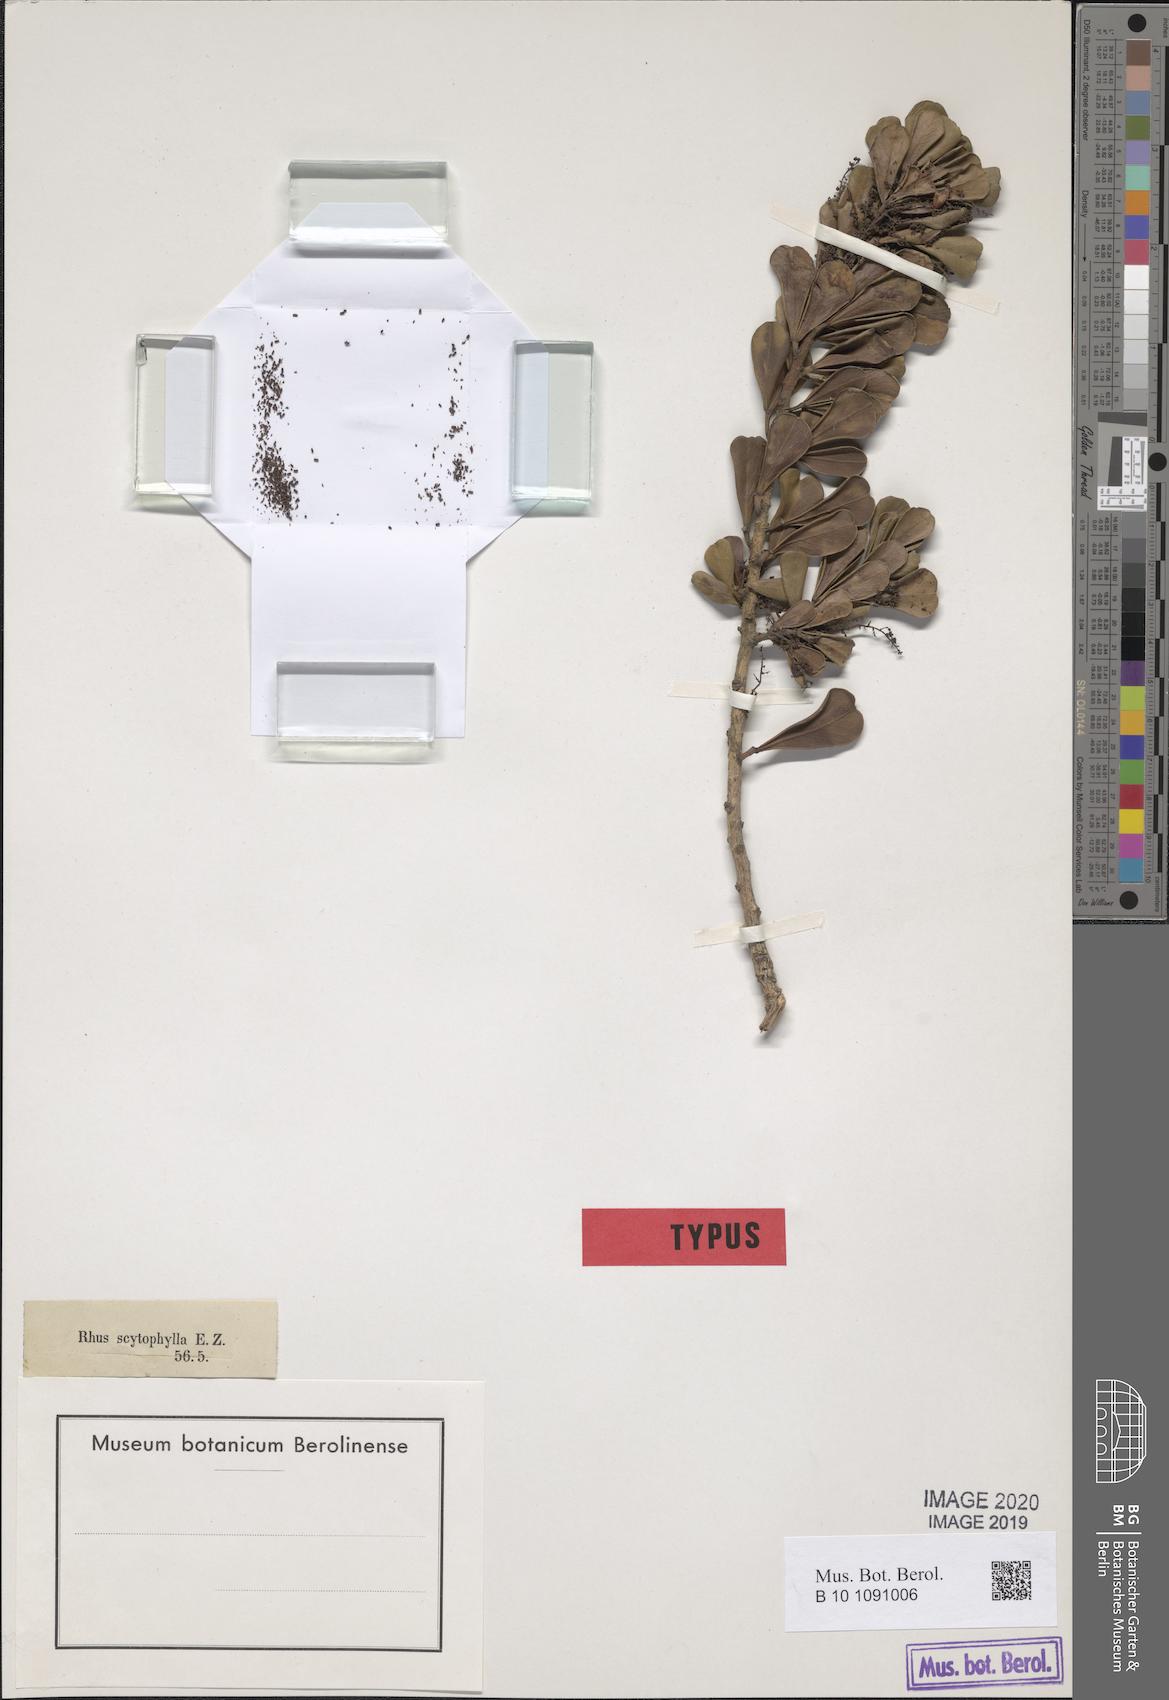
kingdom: Plantae
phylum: Tracheophyta
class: Magnoliopsida
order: Sapindales
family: Anacardiaceae
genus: Searsia
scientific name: Searsia scytophylla
